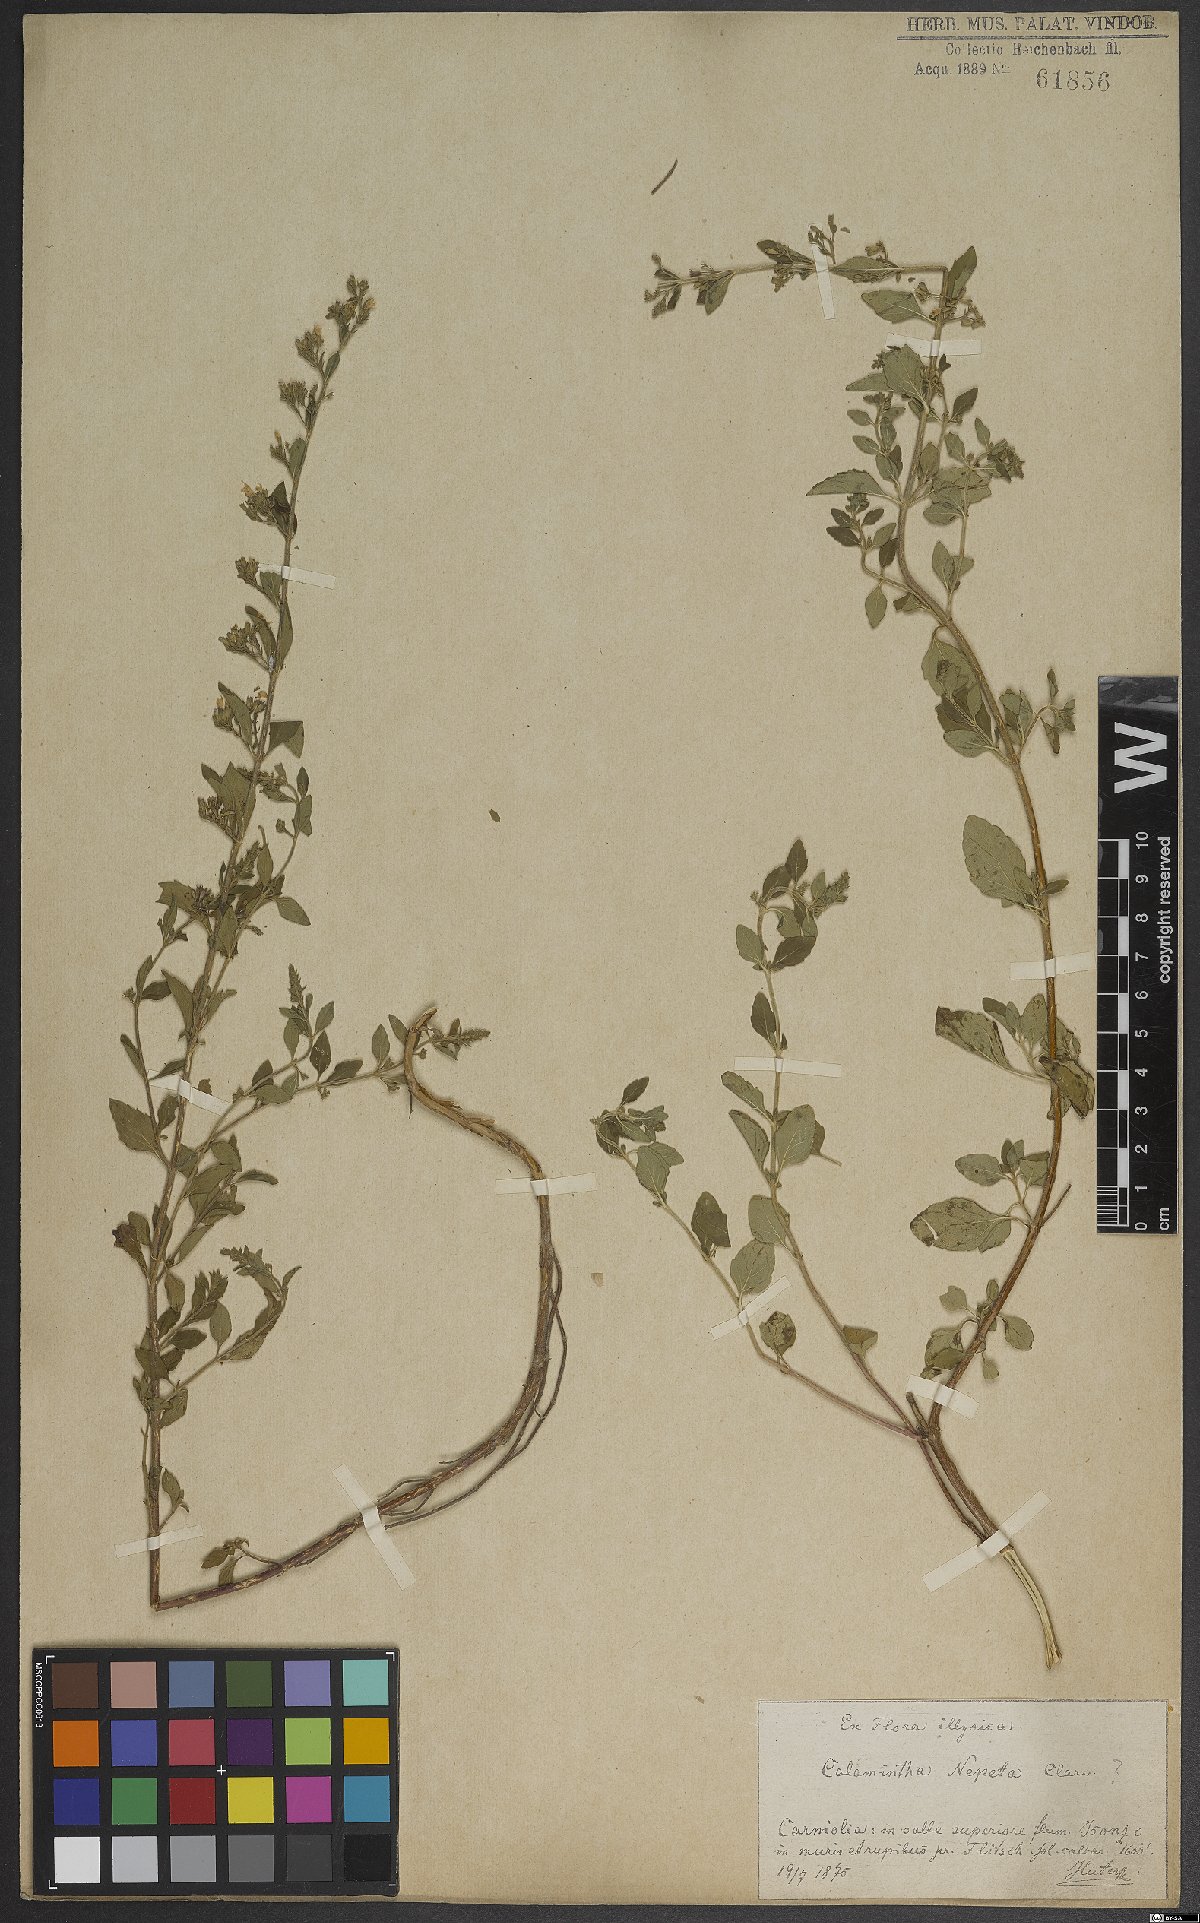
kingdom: Plantae
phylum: Tracheophyta
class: Magnoliopsida
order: Lamiales
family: Lamiaceae
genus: Clinopodium
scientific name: Clinopodium nepeta
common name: Lesser calamint
